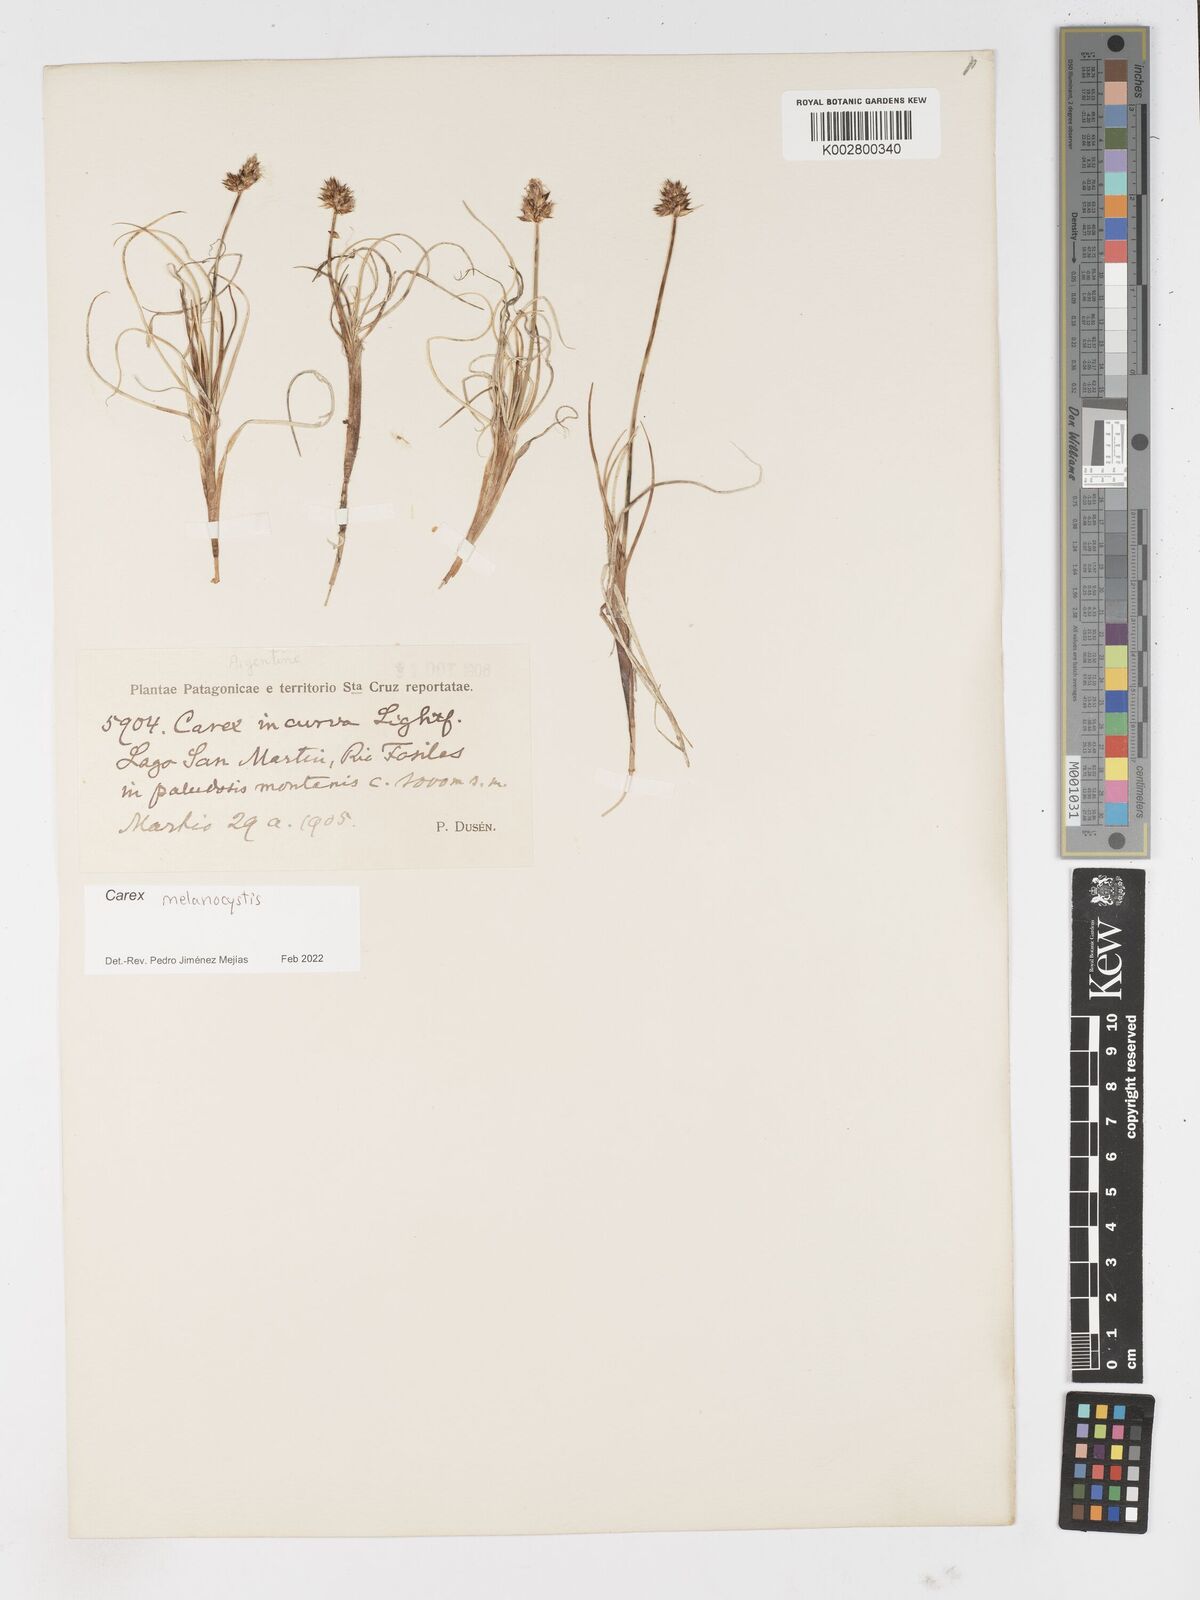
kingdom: Plantae
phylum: Tracheophyta
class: Liliopsida
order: Poales
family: Cyperaceae
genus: Carex
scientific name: Carex melanocystis
